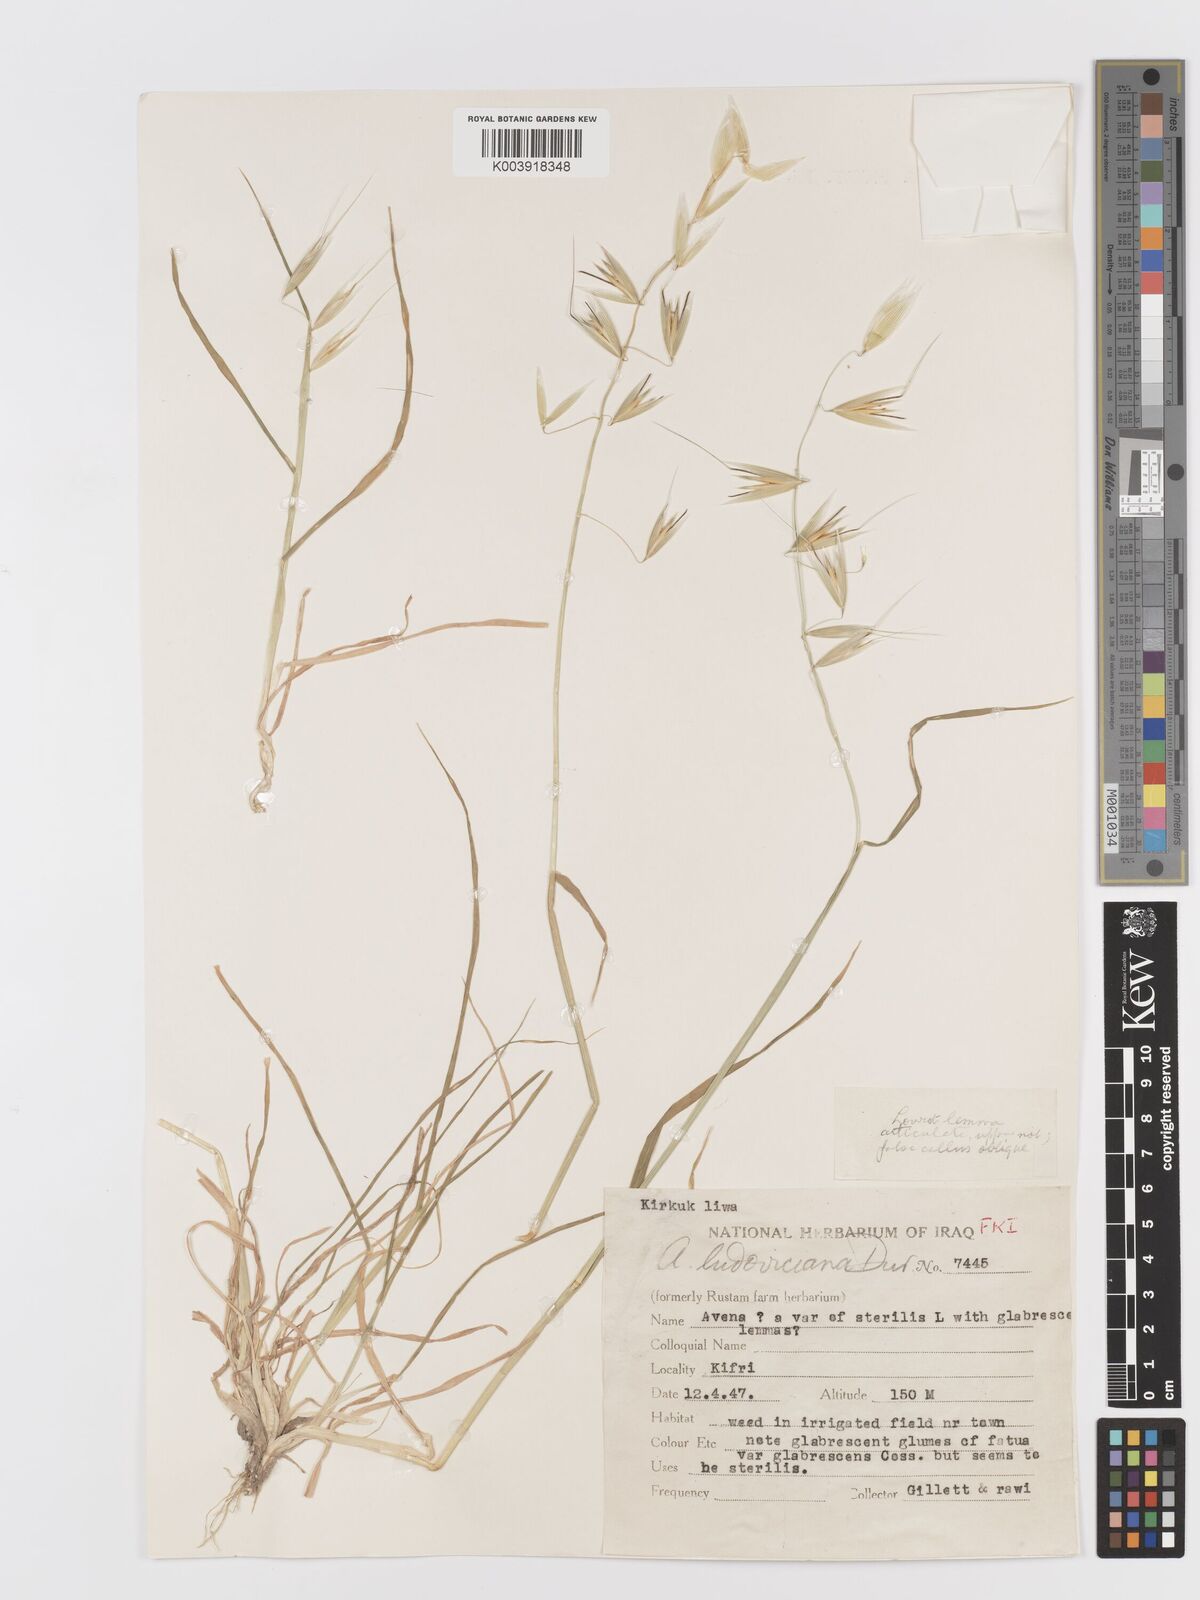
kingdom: Plantae
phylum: Tracheophyta
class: Liliopsida
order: Poales
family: Poaceae
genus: Avena
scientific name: Avena sterilis
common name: Animated oat
